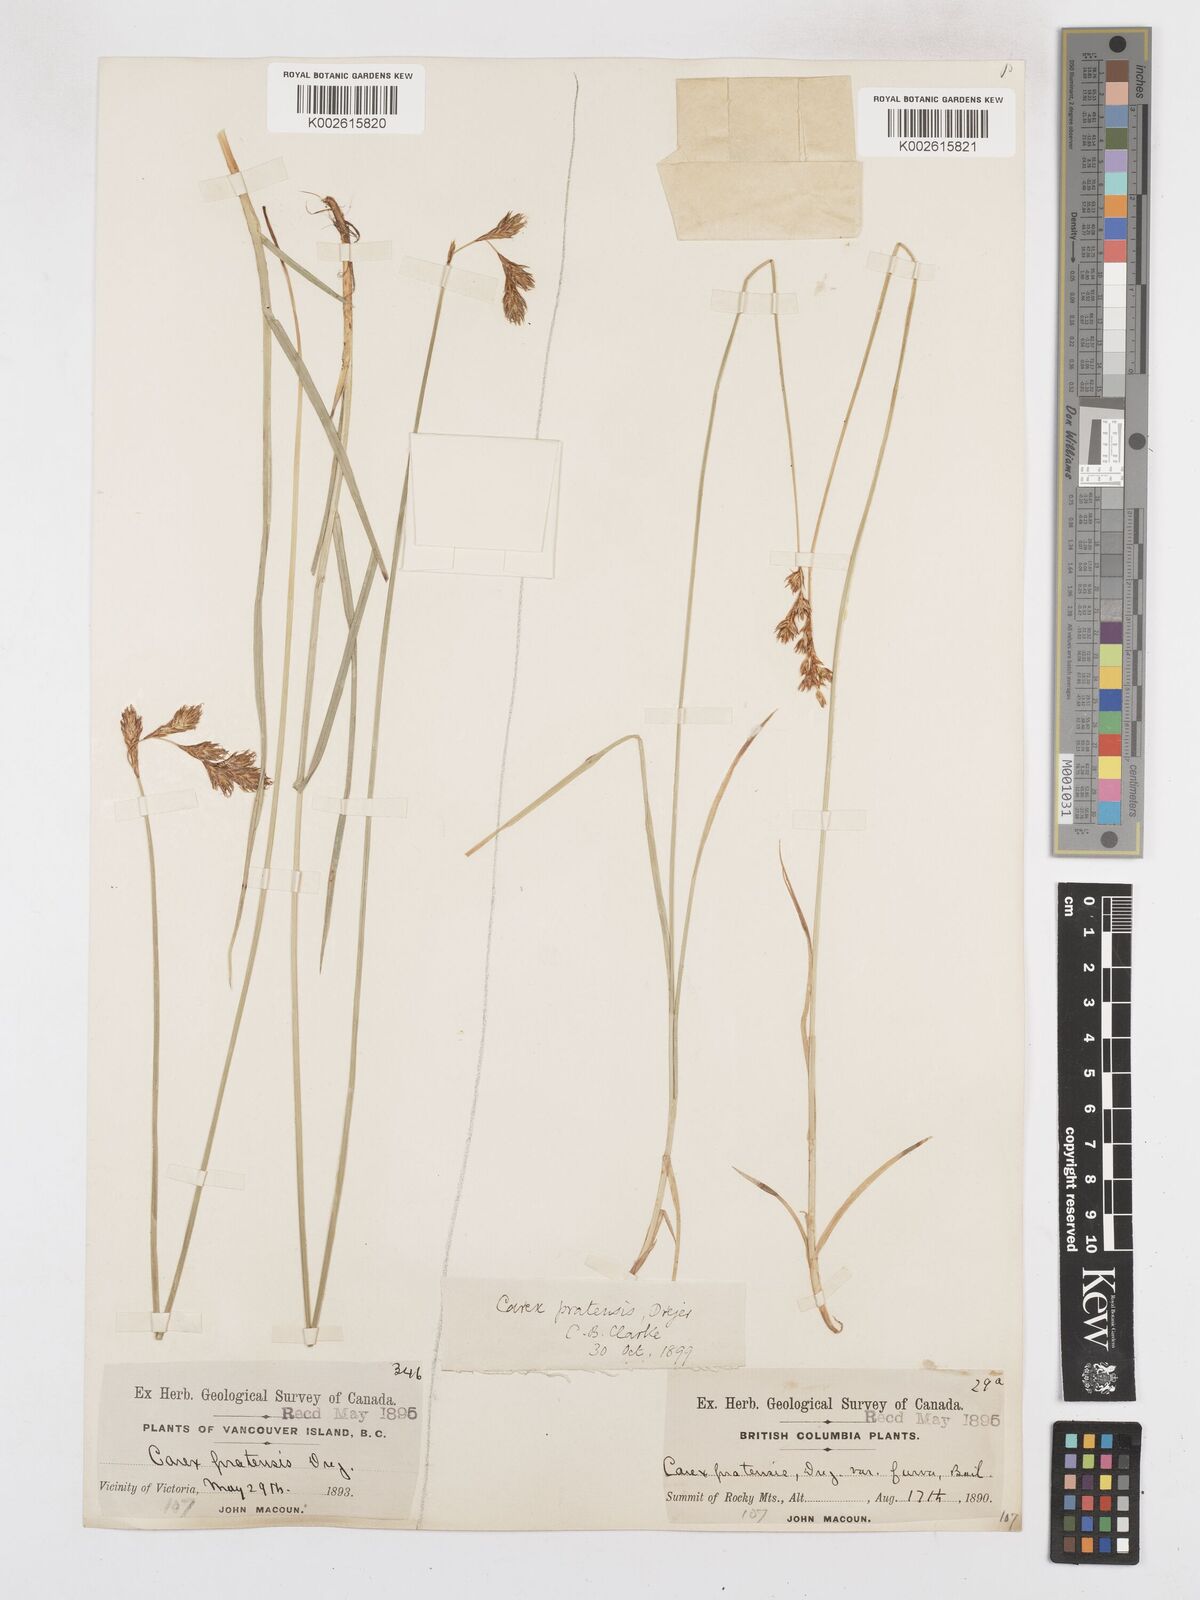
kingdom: Plantae
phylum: Tracheophyta
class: Liliopsida
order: Poales
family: Cyperaceae
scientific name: Cyperaceae
